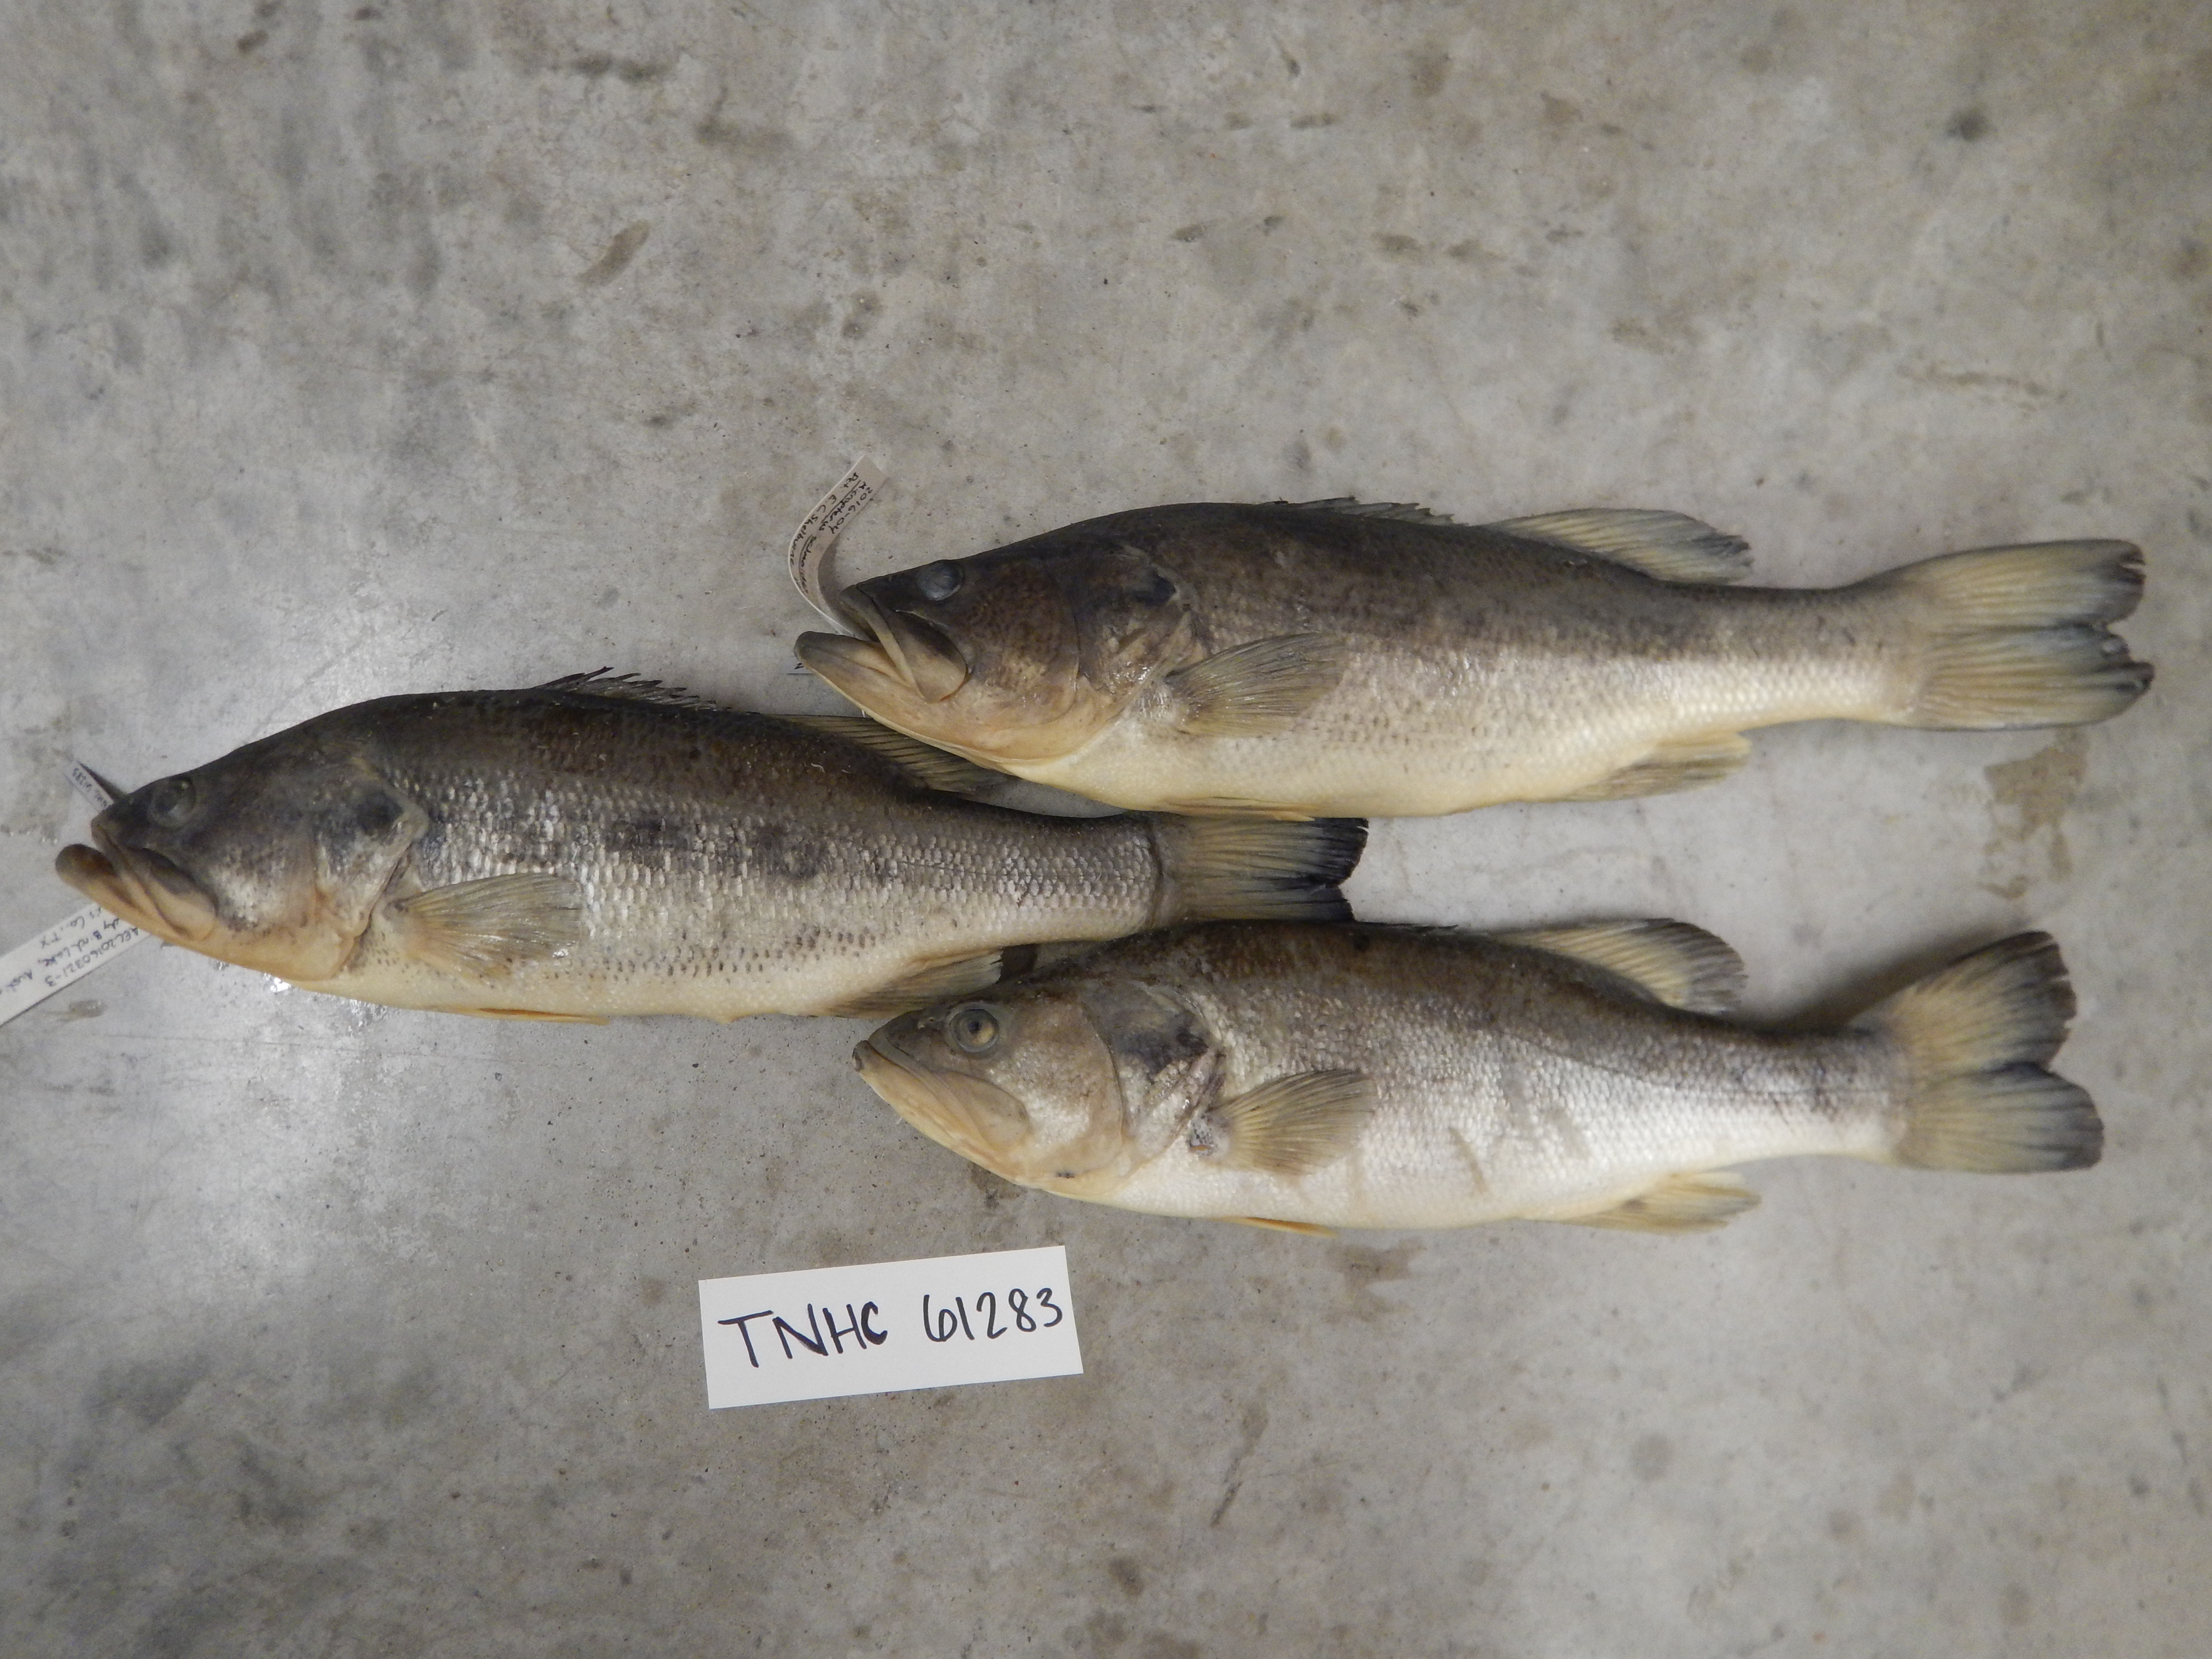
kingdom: Animalia
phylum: Chordata
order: Perciformes
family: Centrarchidae
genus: Micropterus
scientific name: Micropterus salmoides
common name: Largemouth bass
